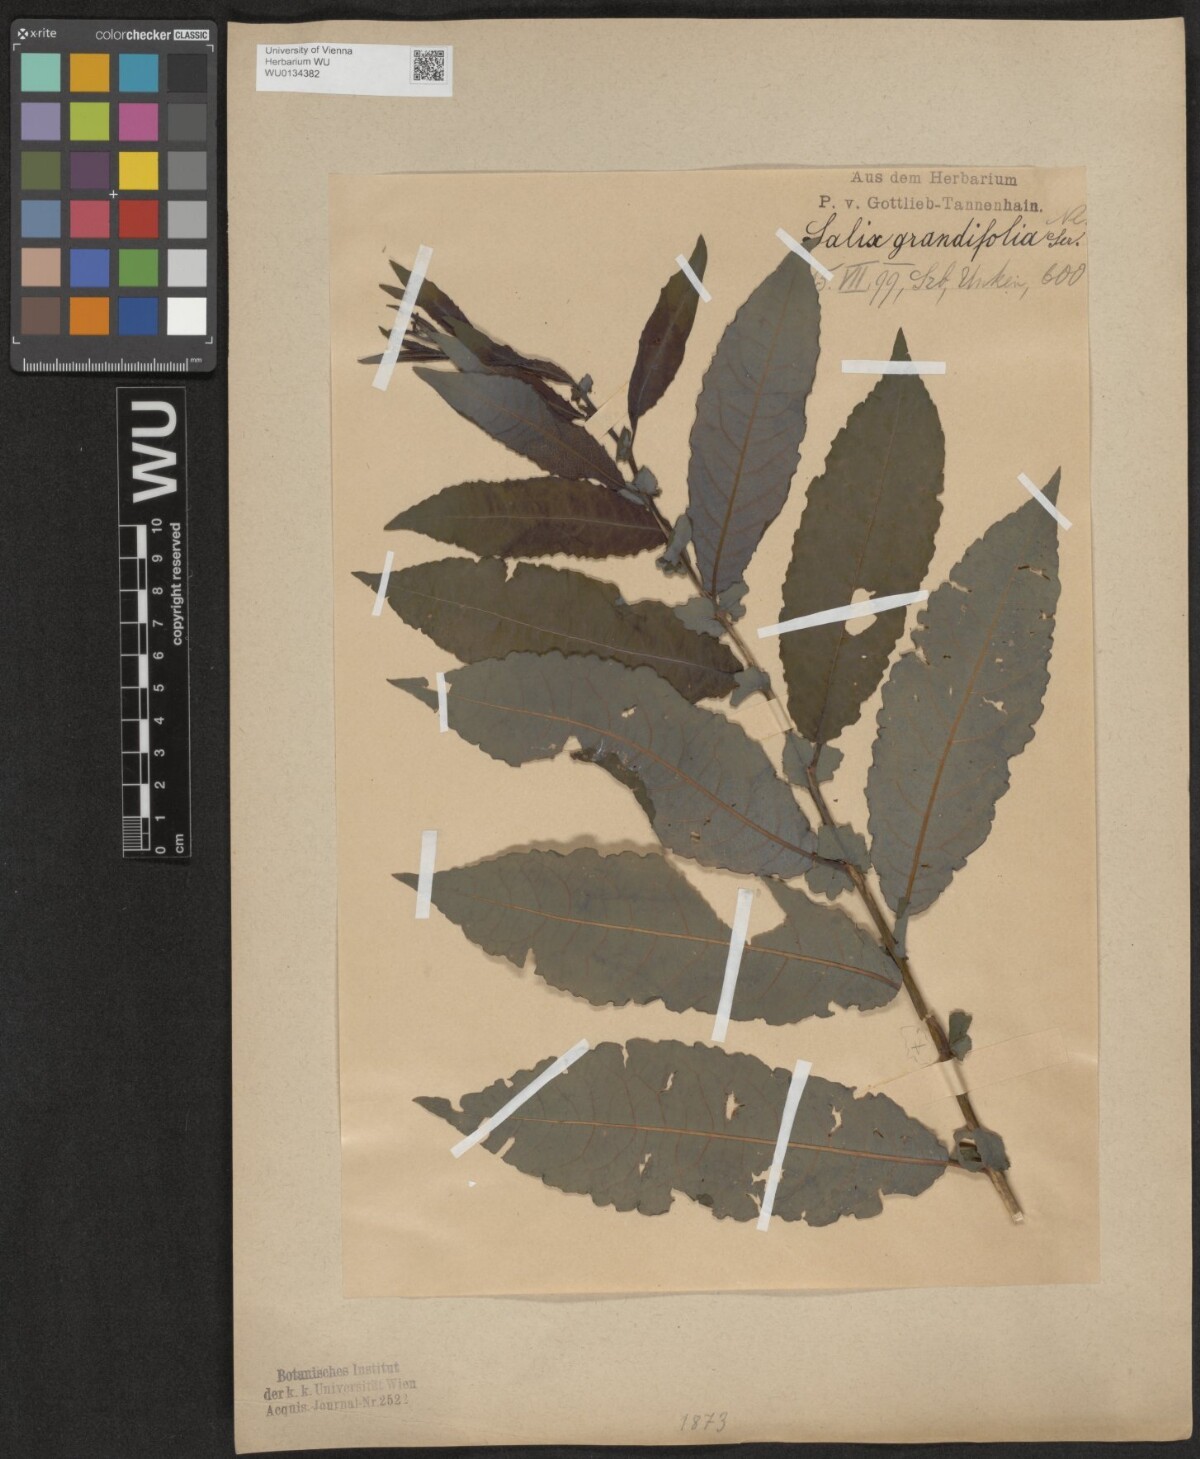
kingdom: Plantae
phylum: Tracheophyta
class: Magnoliopsida
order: Malpighiales
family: Salicaceae
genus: Salix
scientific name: Salix appendiculata
